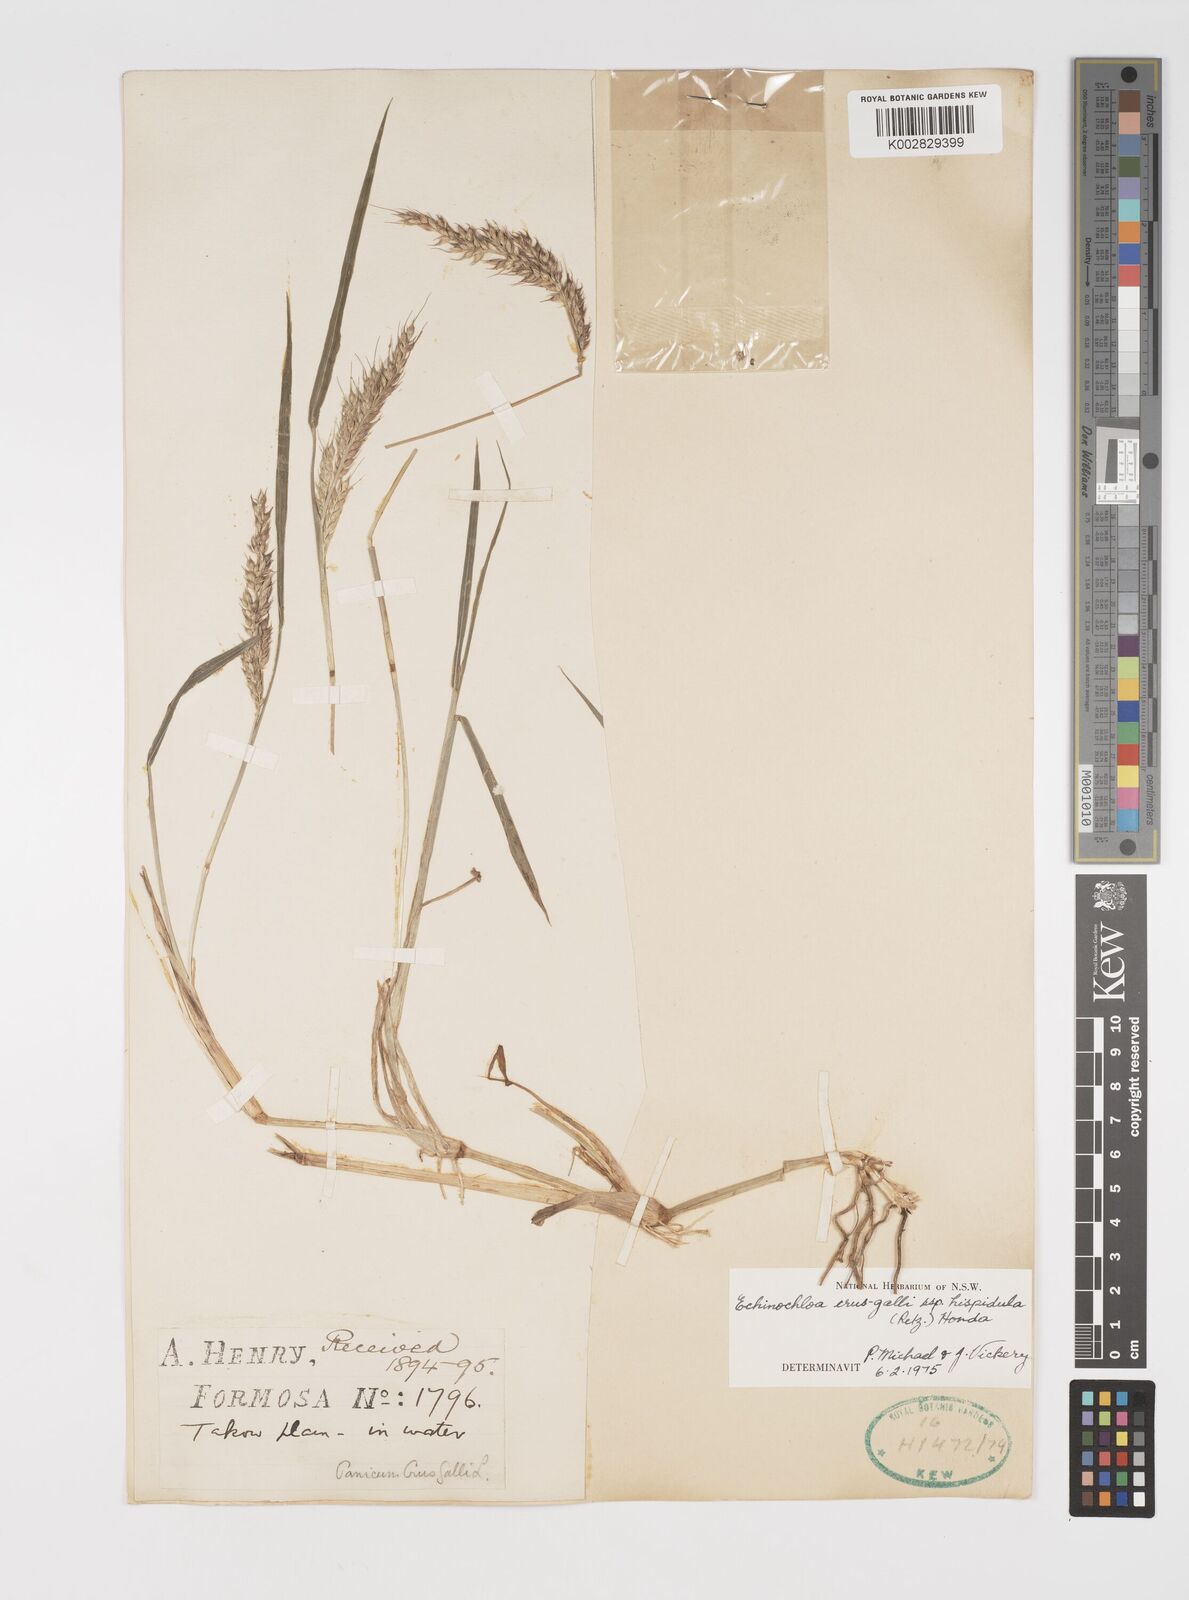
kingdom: Plantae
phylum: Tracheophyta
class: Liliopsida
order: Poales
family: Poaceae
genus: Echinochloa
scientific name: Echinochloa crus-galli
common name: Cockspur
